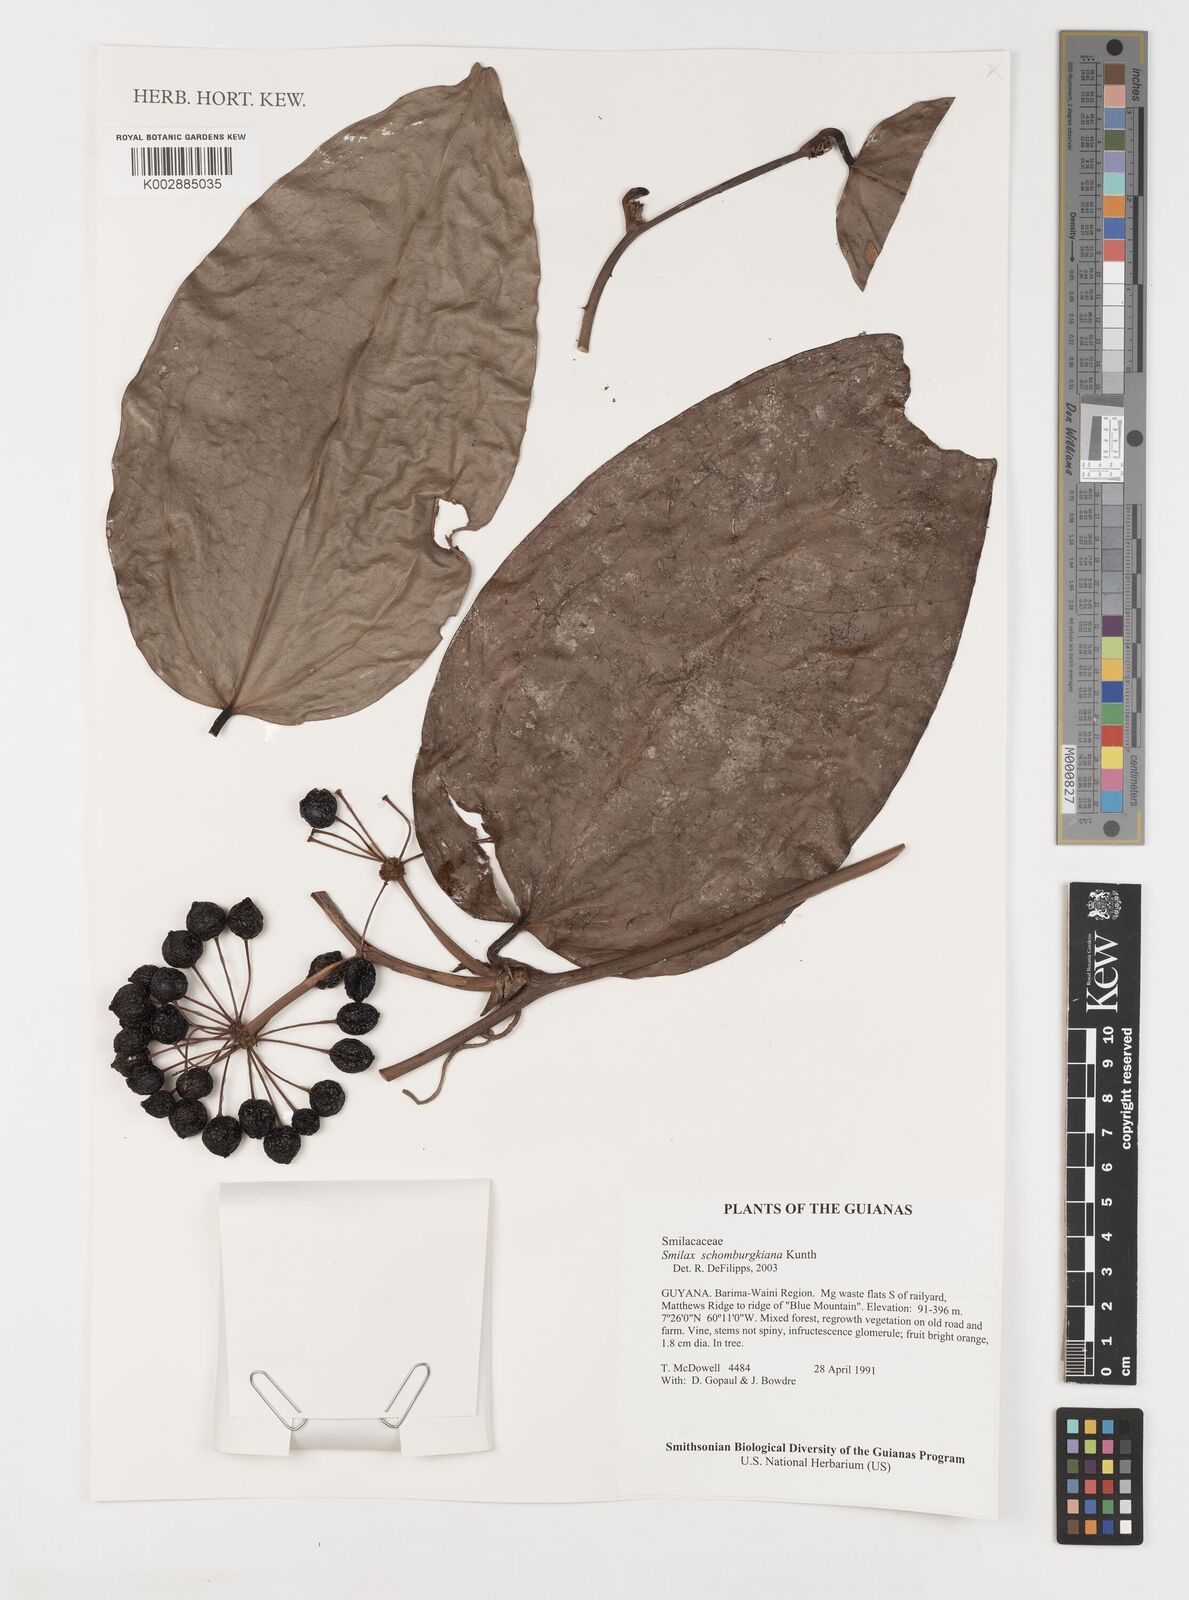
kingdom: Plantae
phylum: Tracheophyta
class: Liliopsida
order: Liliales
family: Smilacaceae
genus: Smilax
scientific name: Smilax schomburgkiana
